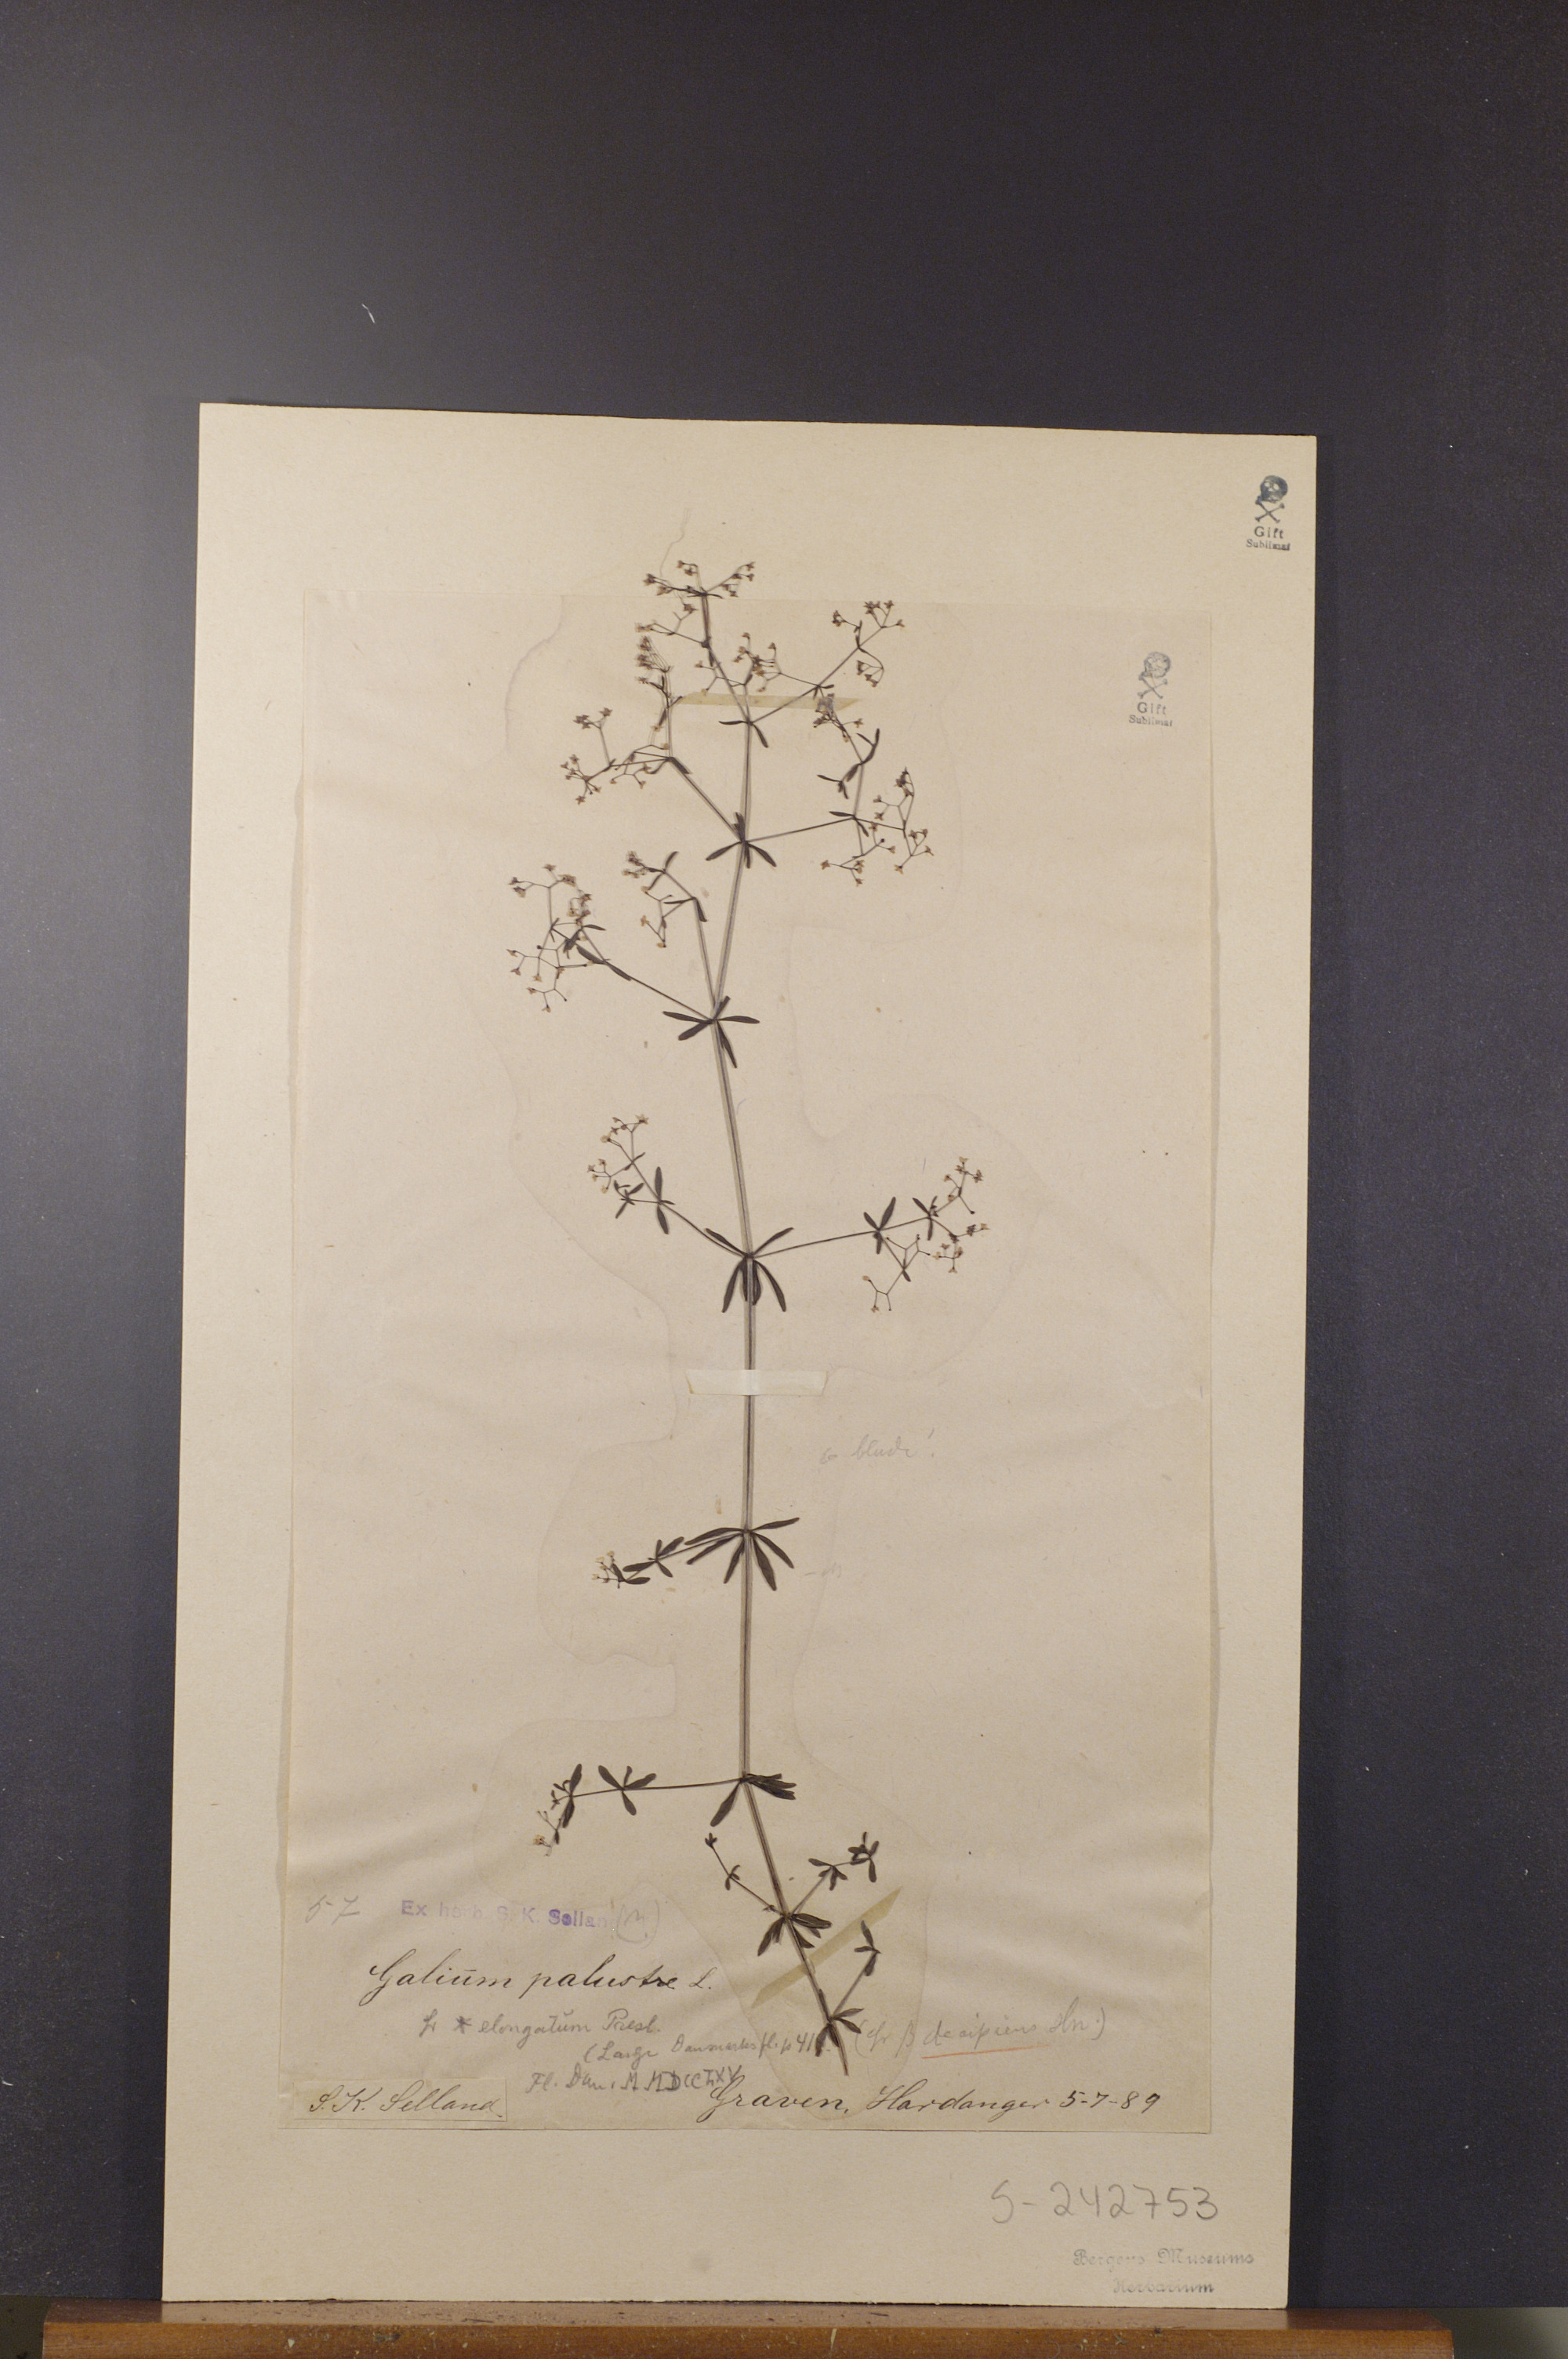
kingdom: Plantae
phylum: Tracheophyta
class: Magnoliopsida
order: Gentianales
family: Rubiaceae
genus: Galium
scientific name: Galium elongatum
